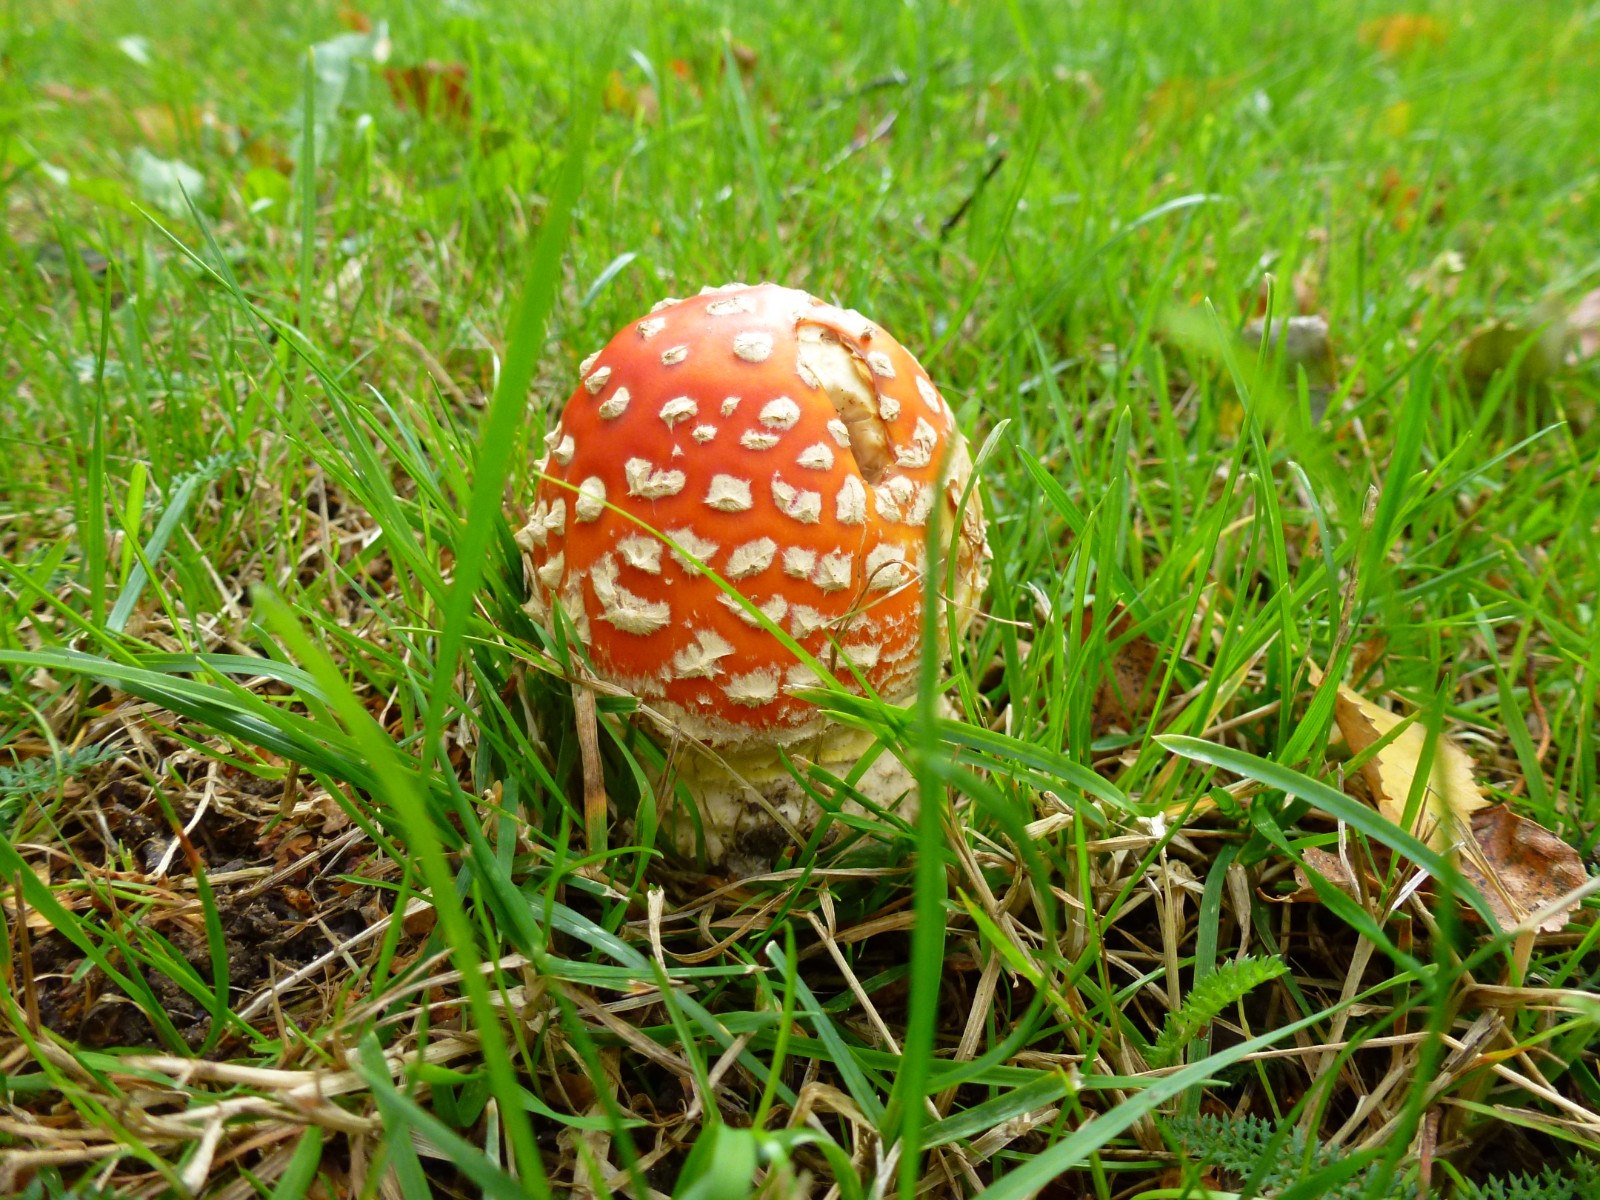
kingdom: Fungi
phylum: Basidiomycota
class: Agaricomycetes
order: Agaricales
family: Amanitaceae
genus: Amanita
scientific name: Amanita muscaria
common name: rød fluesvamp
